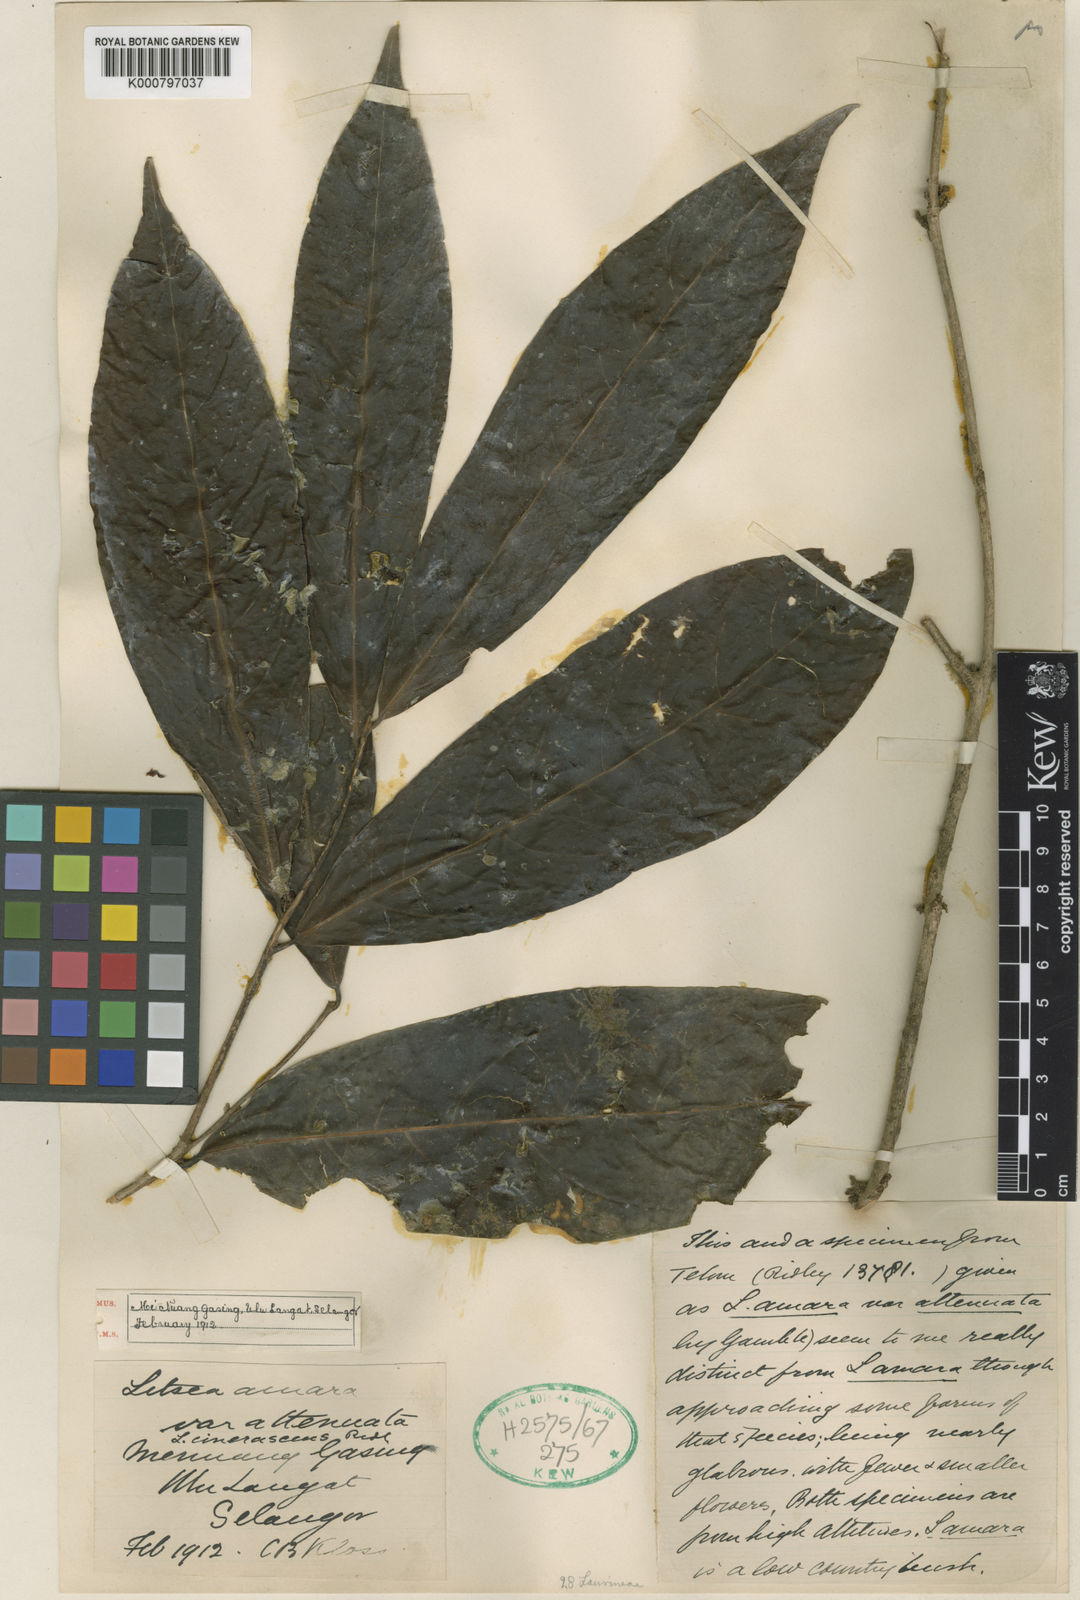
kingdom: Plantae
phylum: Tracheophyta
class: Magnoliopsida
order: Laurales
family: Lauraceae
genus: Litsea
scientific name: Litsea umbellata
